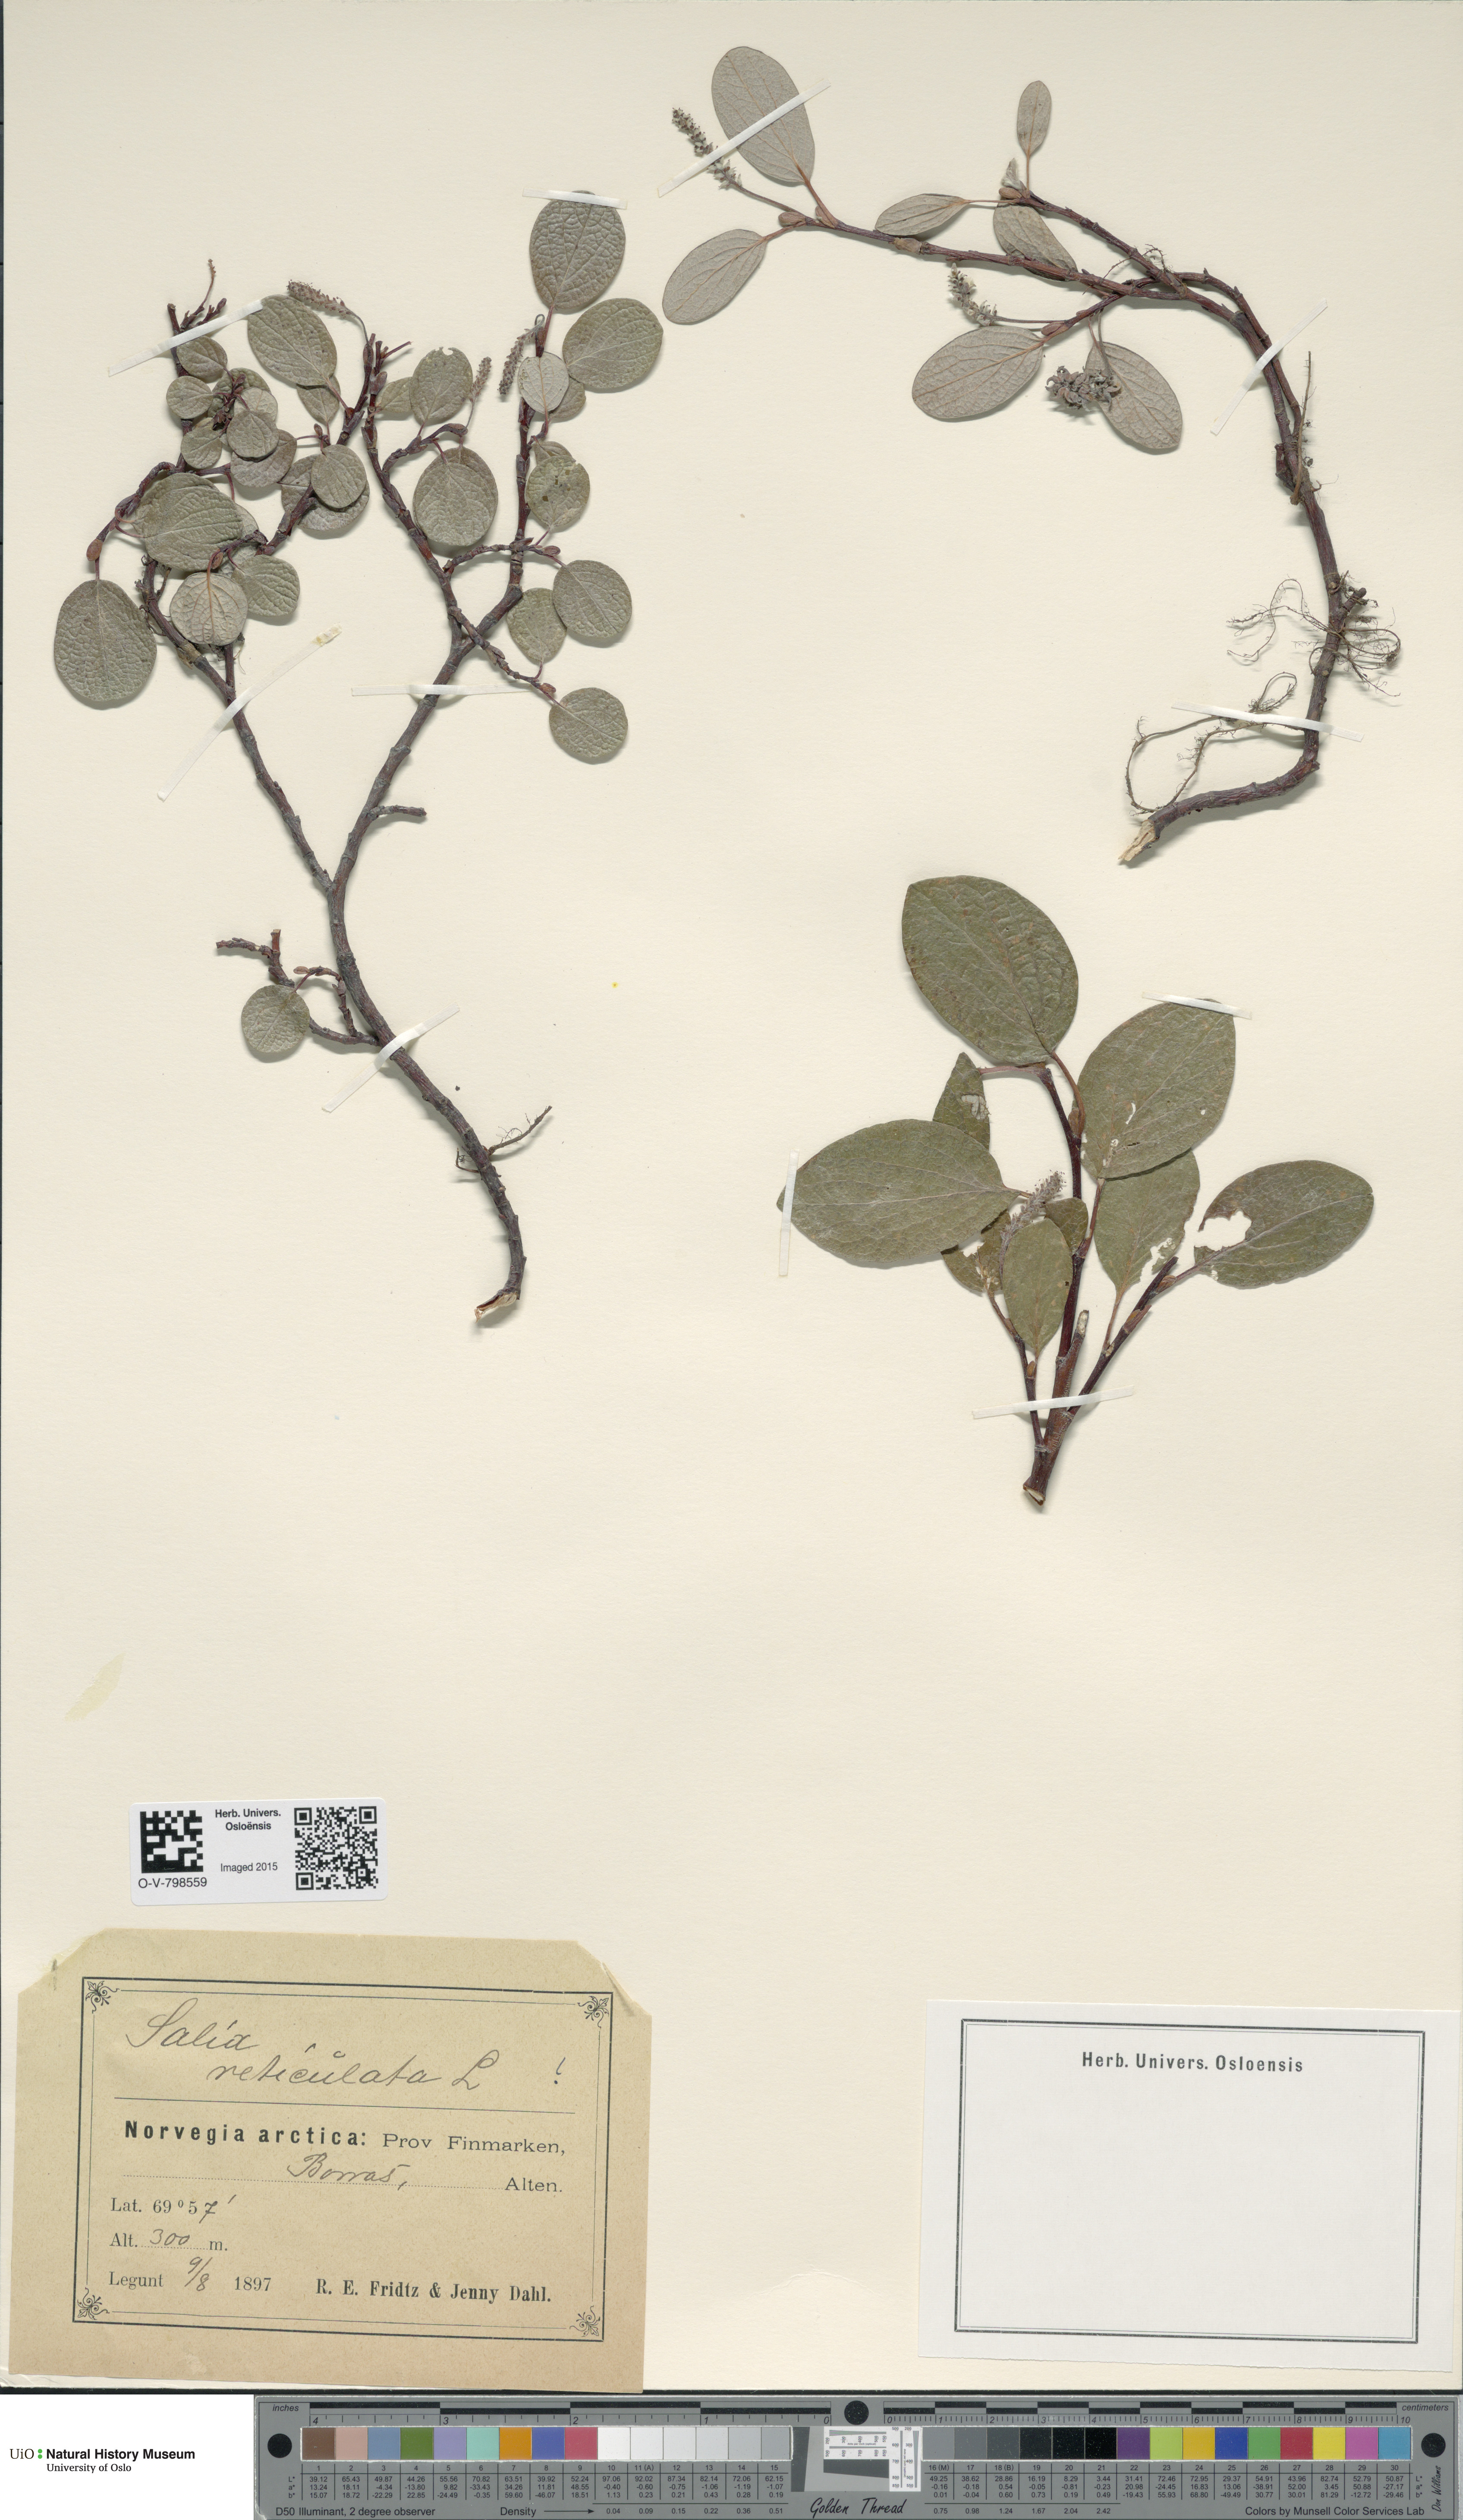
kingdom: Plantae
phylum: Tracheophyta
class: Magnoliopsida
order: Malpighiales
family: Salicaceae
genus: Salix
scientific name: Salix reticulata
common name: Net-leaved willow
